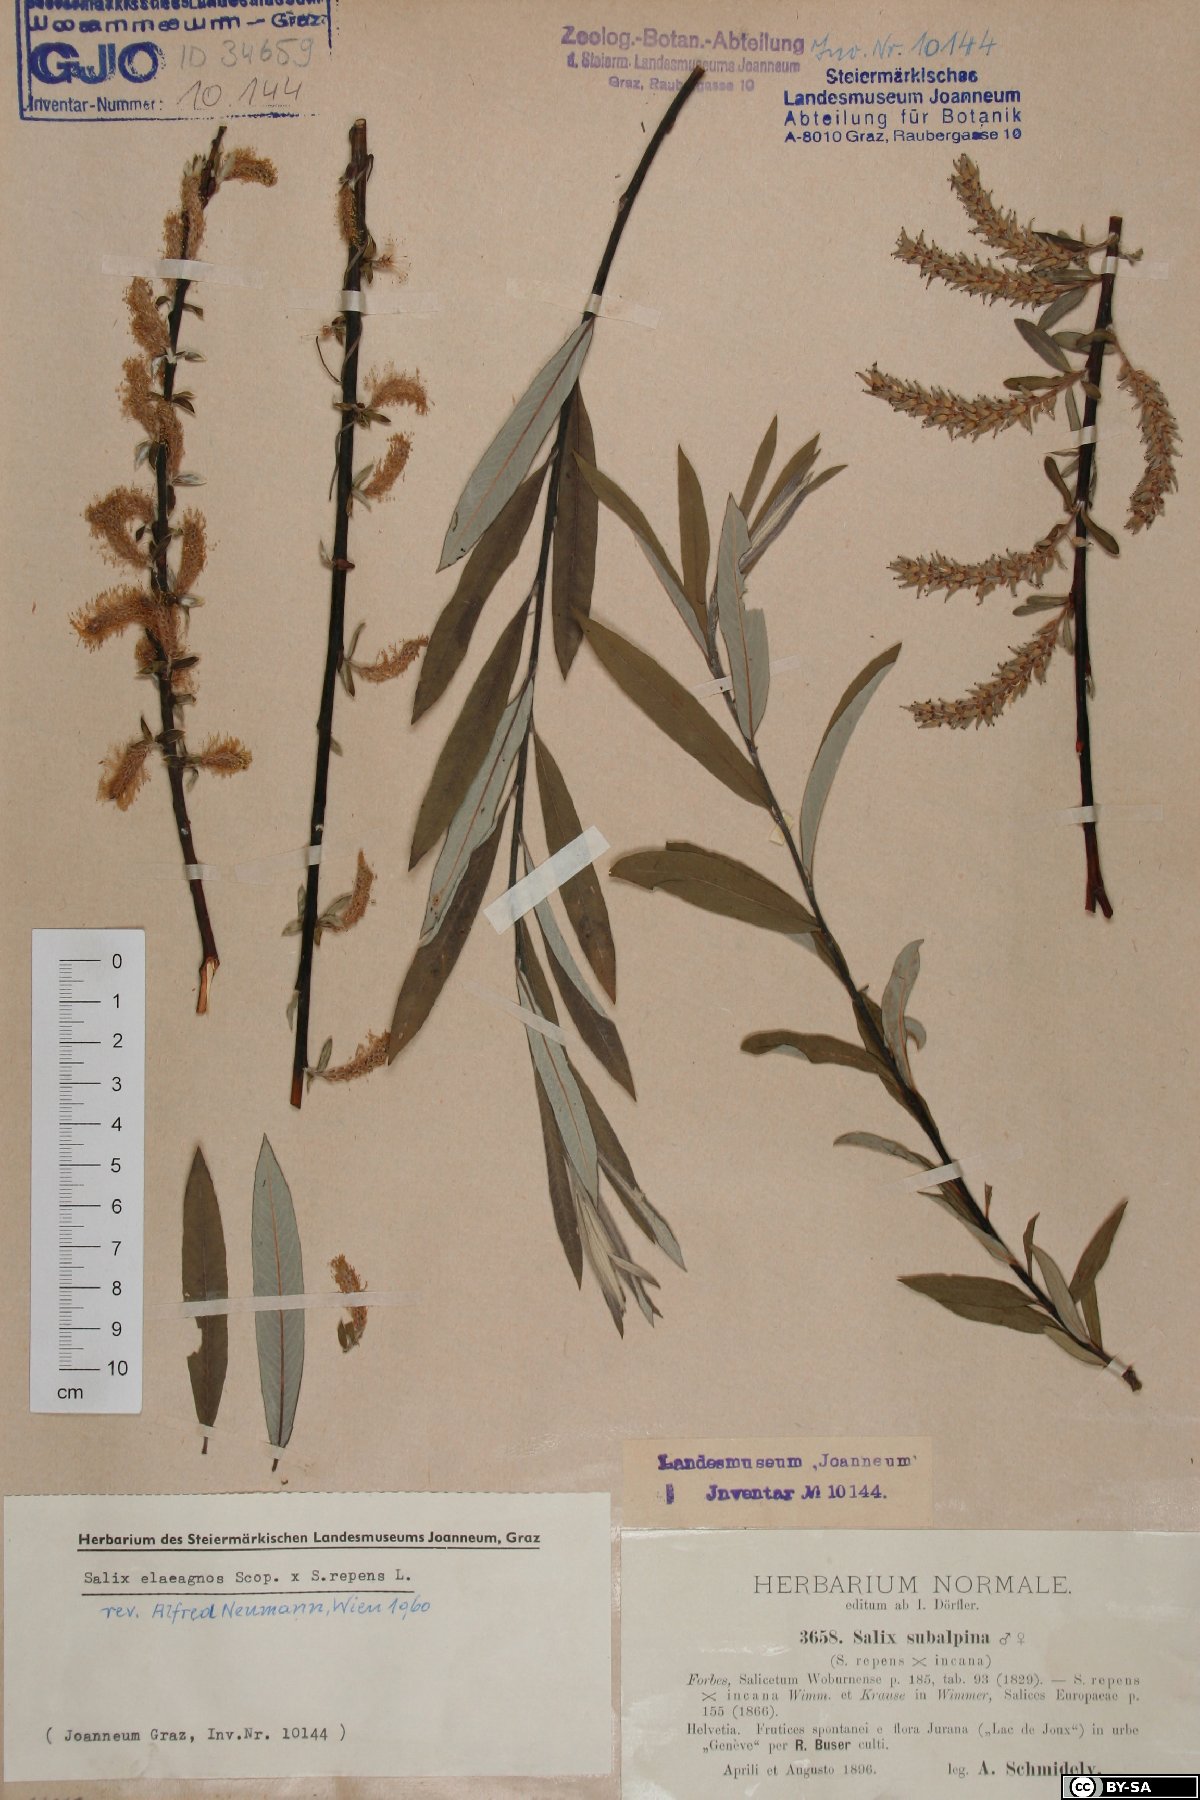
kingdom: Plantae
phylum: Tracheophyta
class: Magnoliopsida
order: Malpighiales
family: Salicaceae
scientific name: Salicaceae
